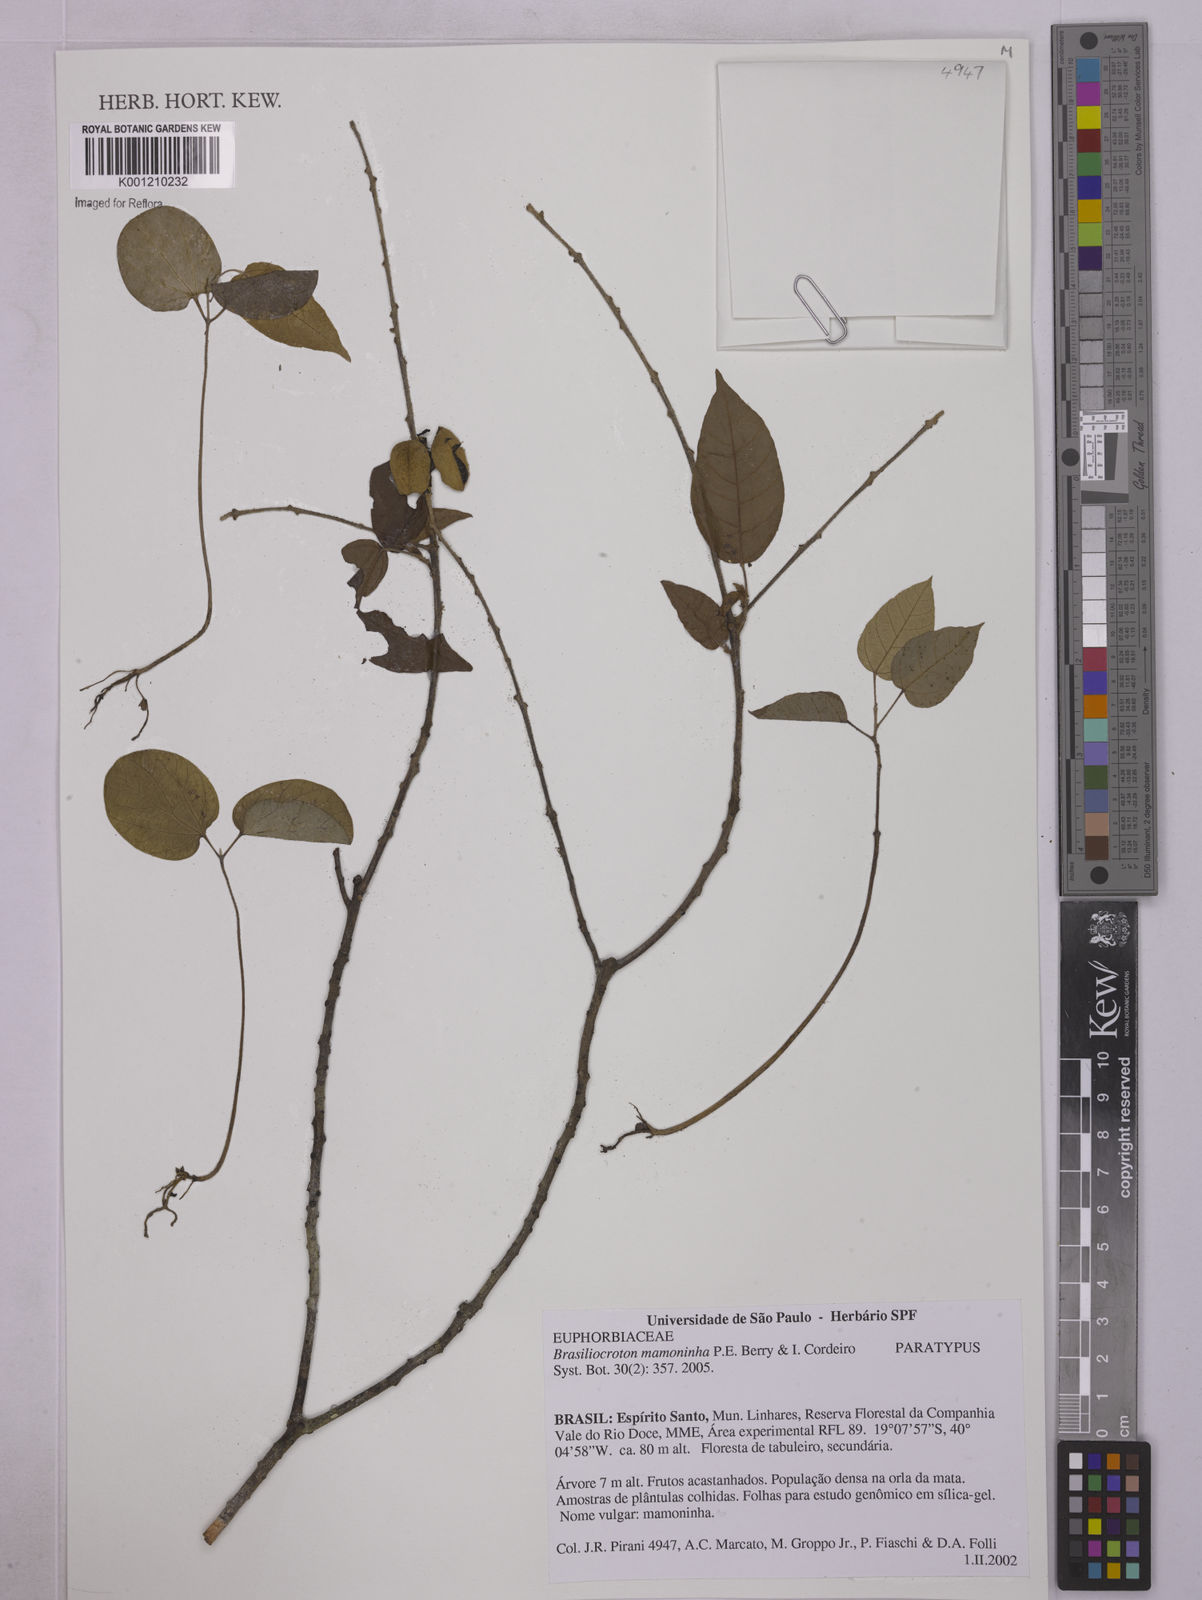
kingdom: Plantae
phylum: Tracheophyta
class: Magnoliopsida
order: Malpighiales
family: Euphorbiaceae
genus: Brasiliocroton
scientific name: Brasiliocroton mamoninha
